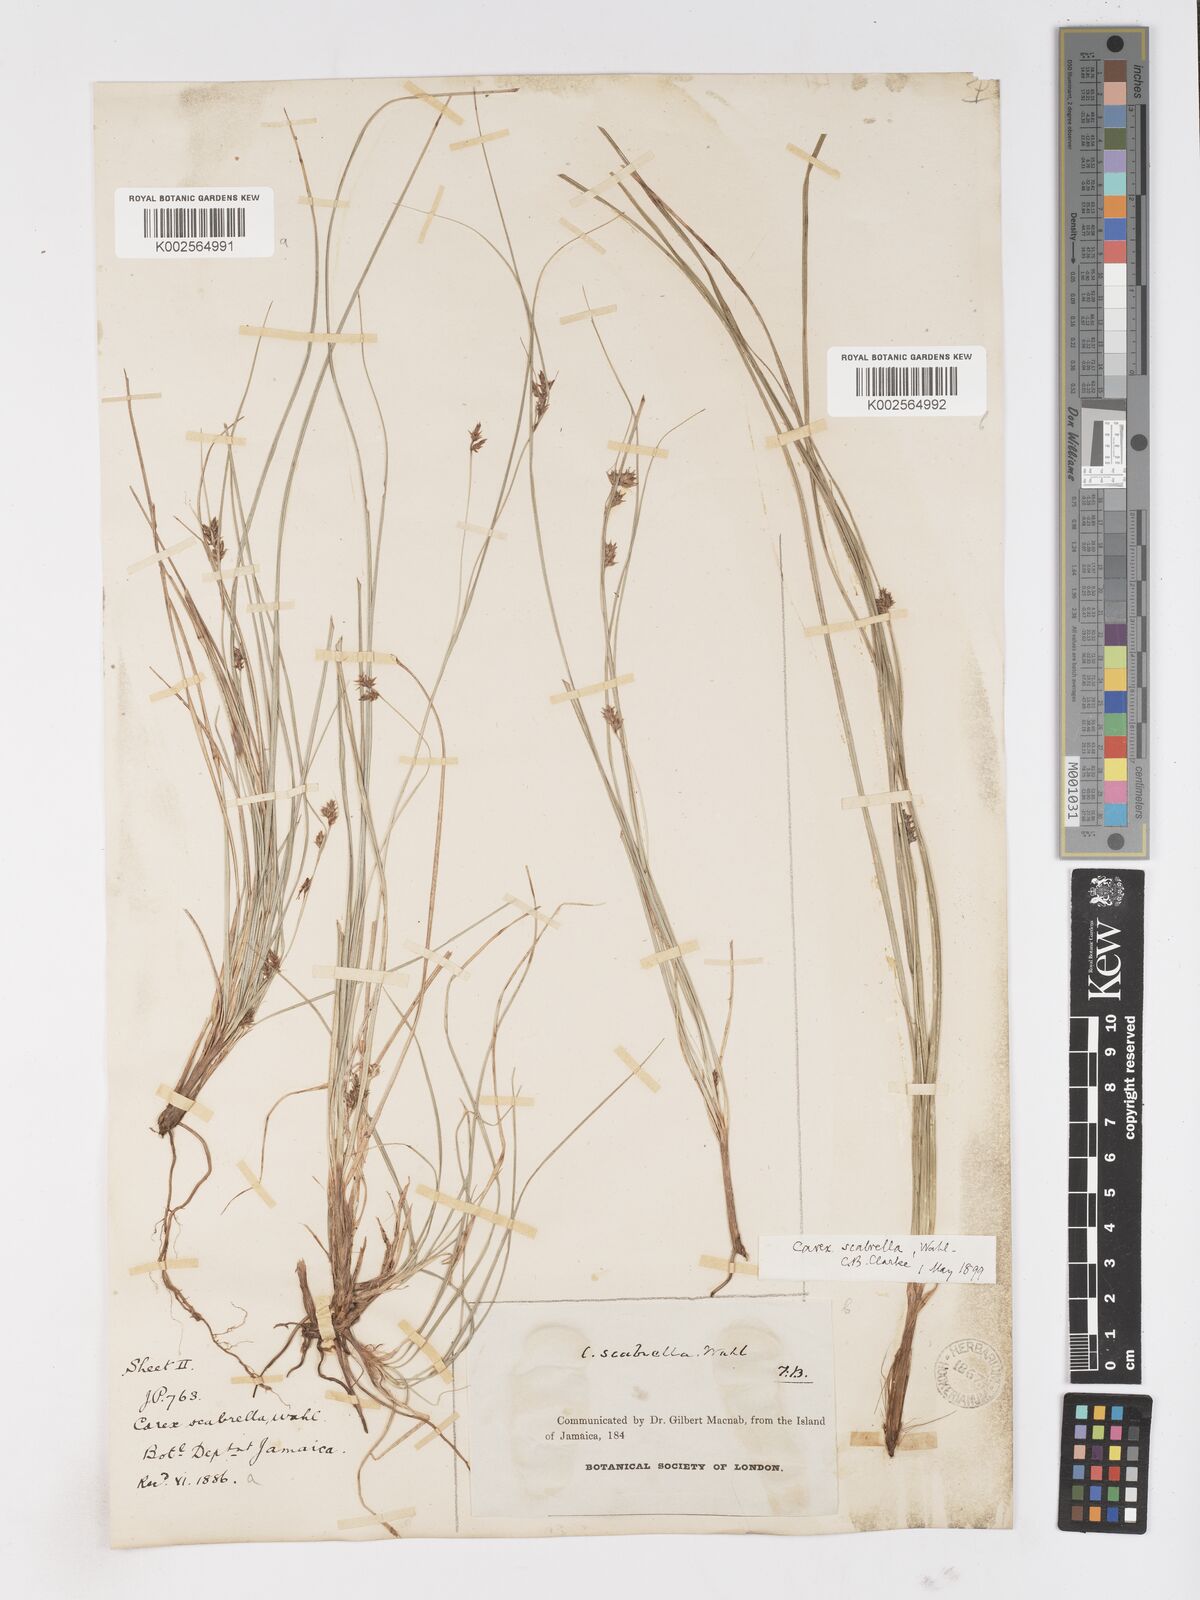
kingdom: Plantae
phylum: Tracheophyta
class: Liliopsida
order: Poales
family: Cyperaceae
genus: Carex
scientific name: Carex
